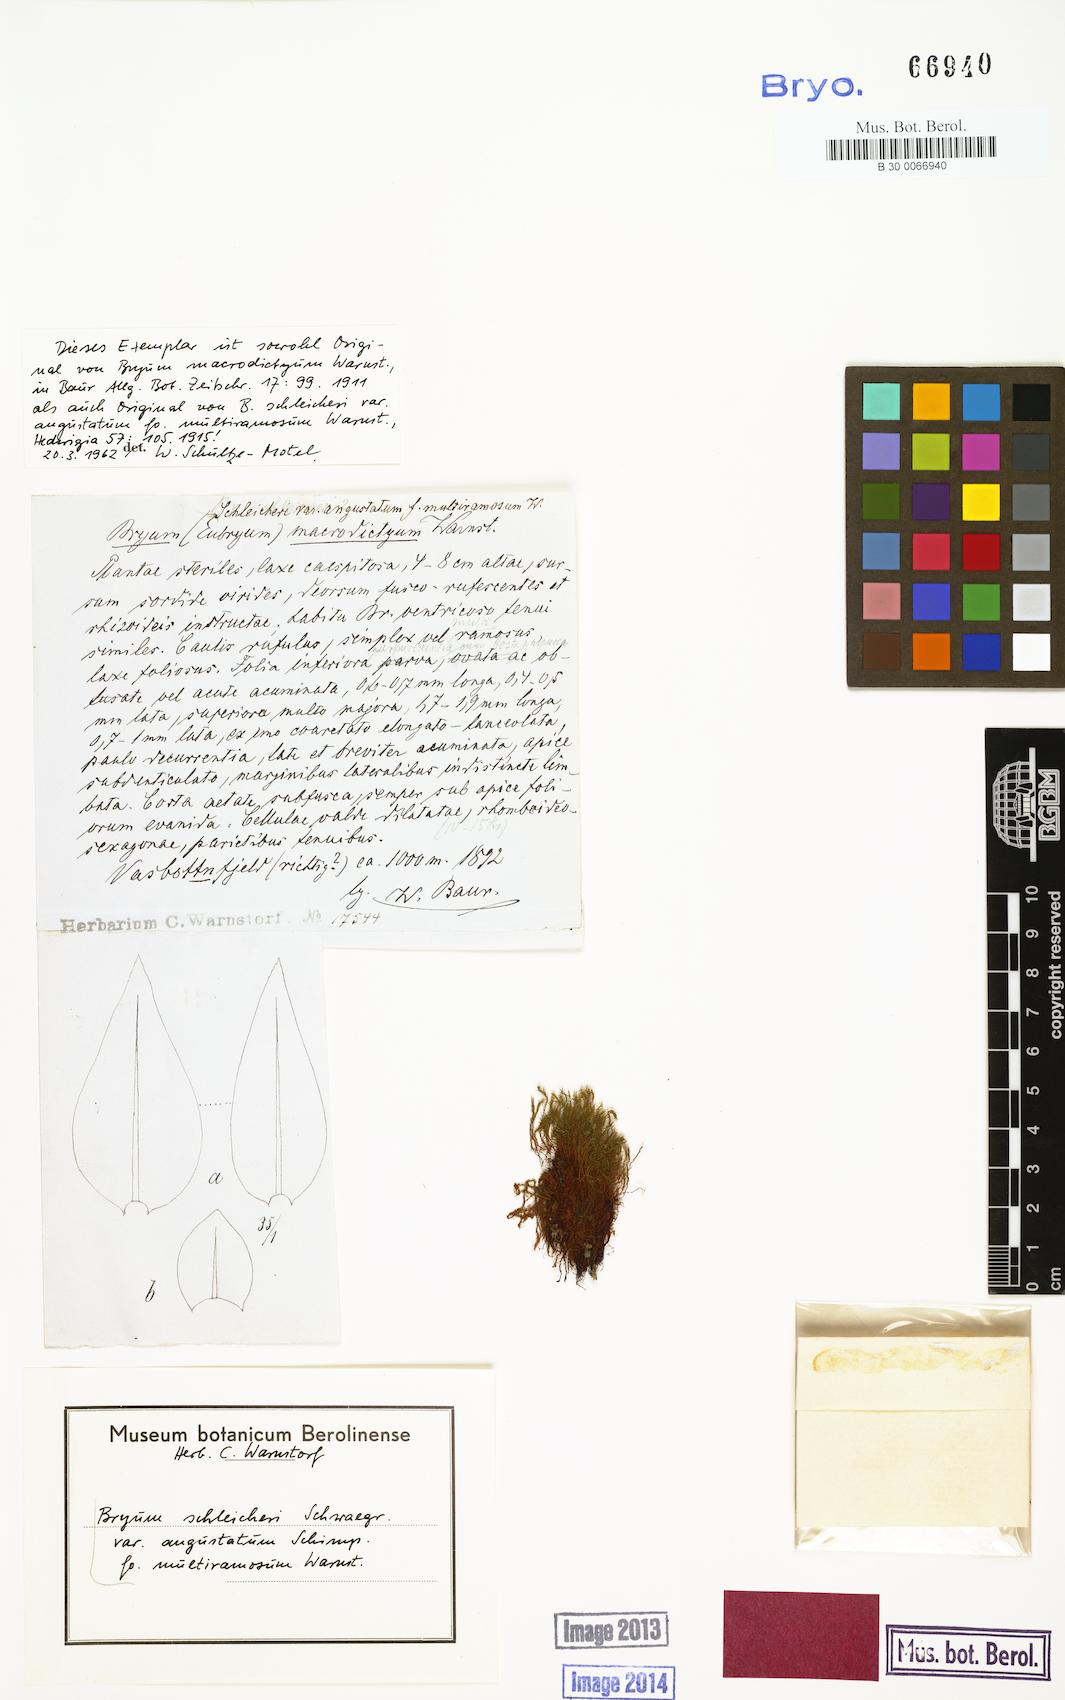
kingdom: Plantae
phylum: Bryophyta
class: Bryopsida
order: Bryales
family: Bryaceae
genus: Ptychostomum
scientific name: Ptychostomum schleicheri
